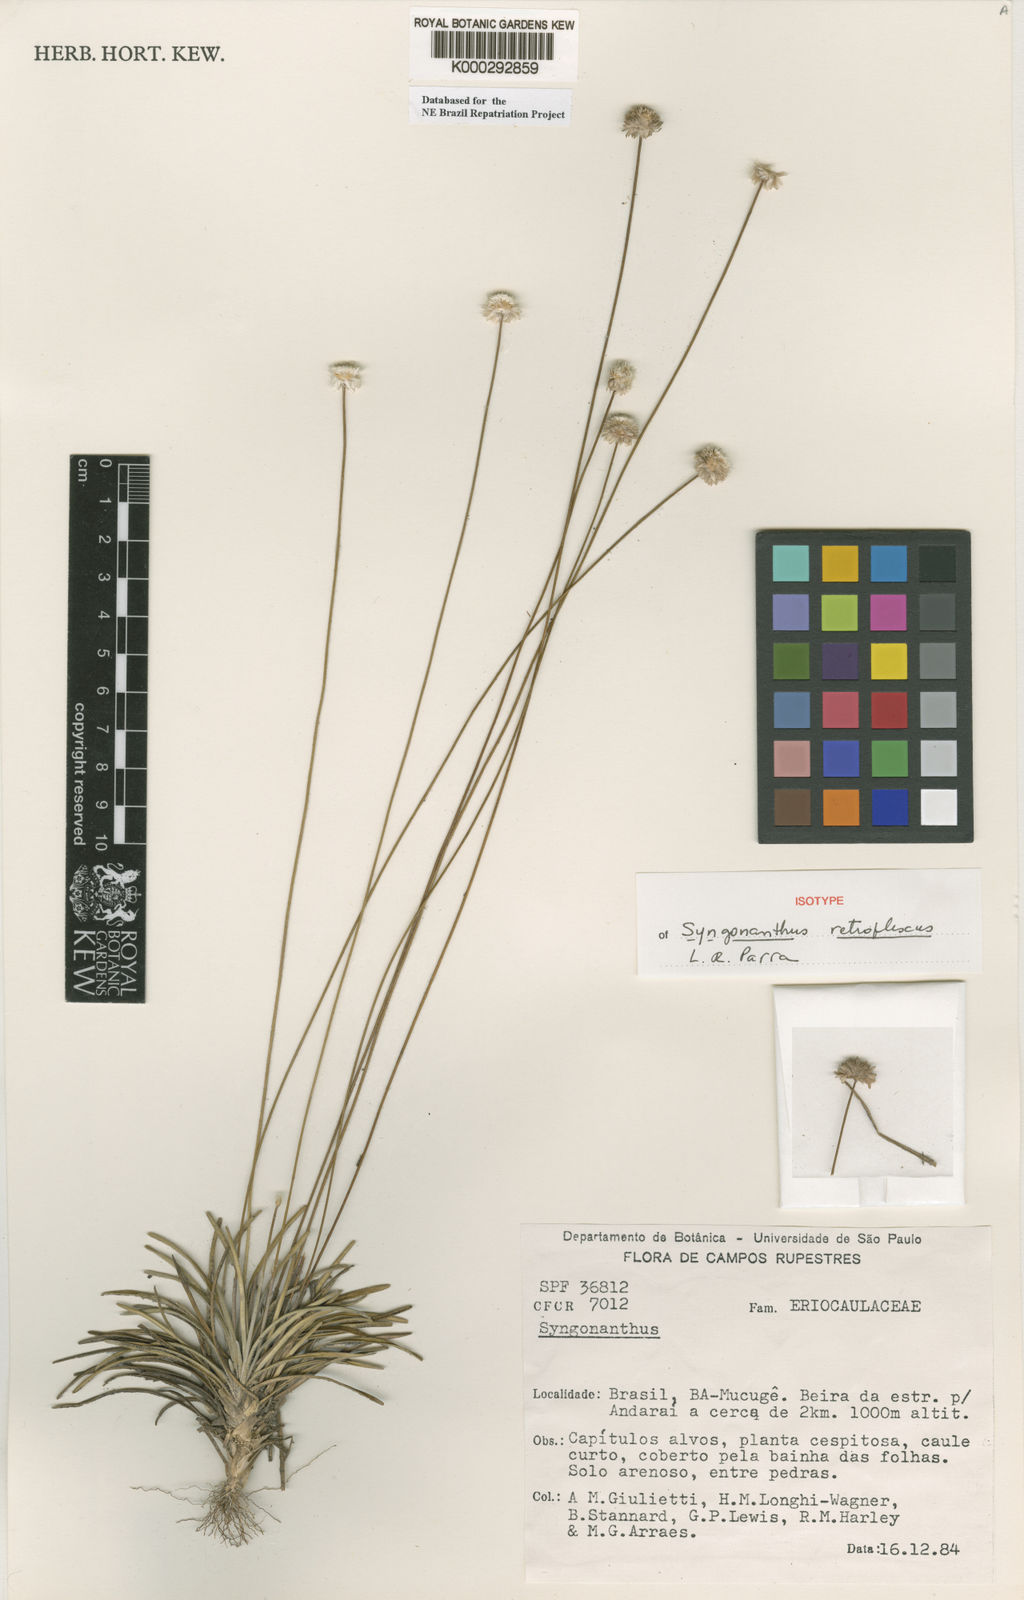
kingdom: Plantae
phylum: Tracheophyta
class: Liliopsida
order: Poales
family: Eriocaulaceae
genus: Syngonanthus
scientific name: Syngonanthus
